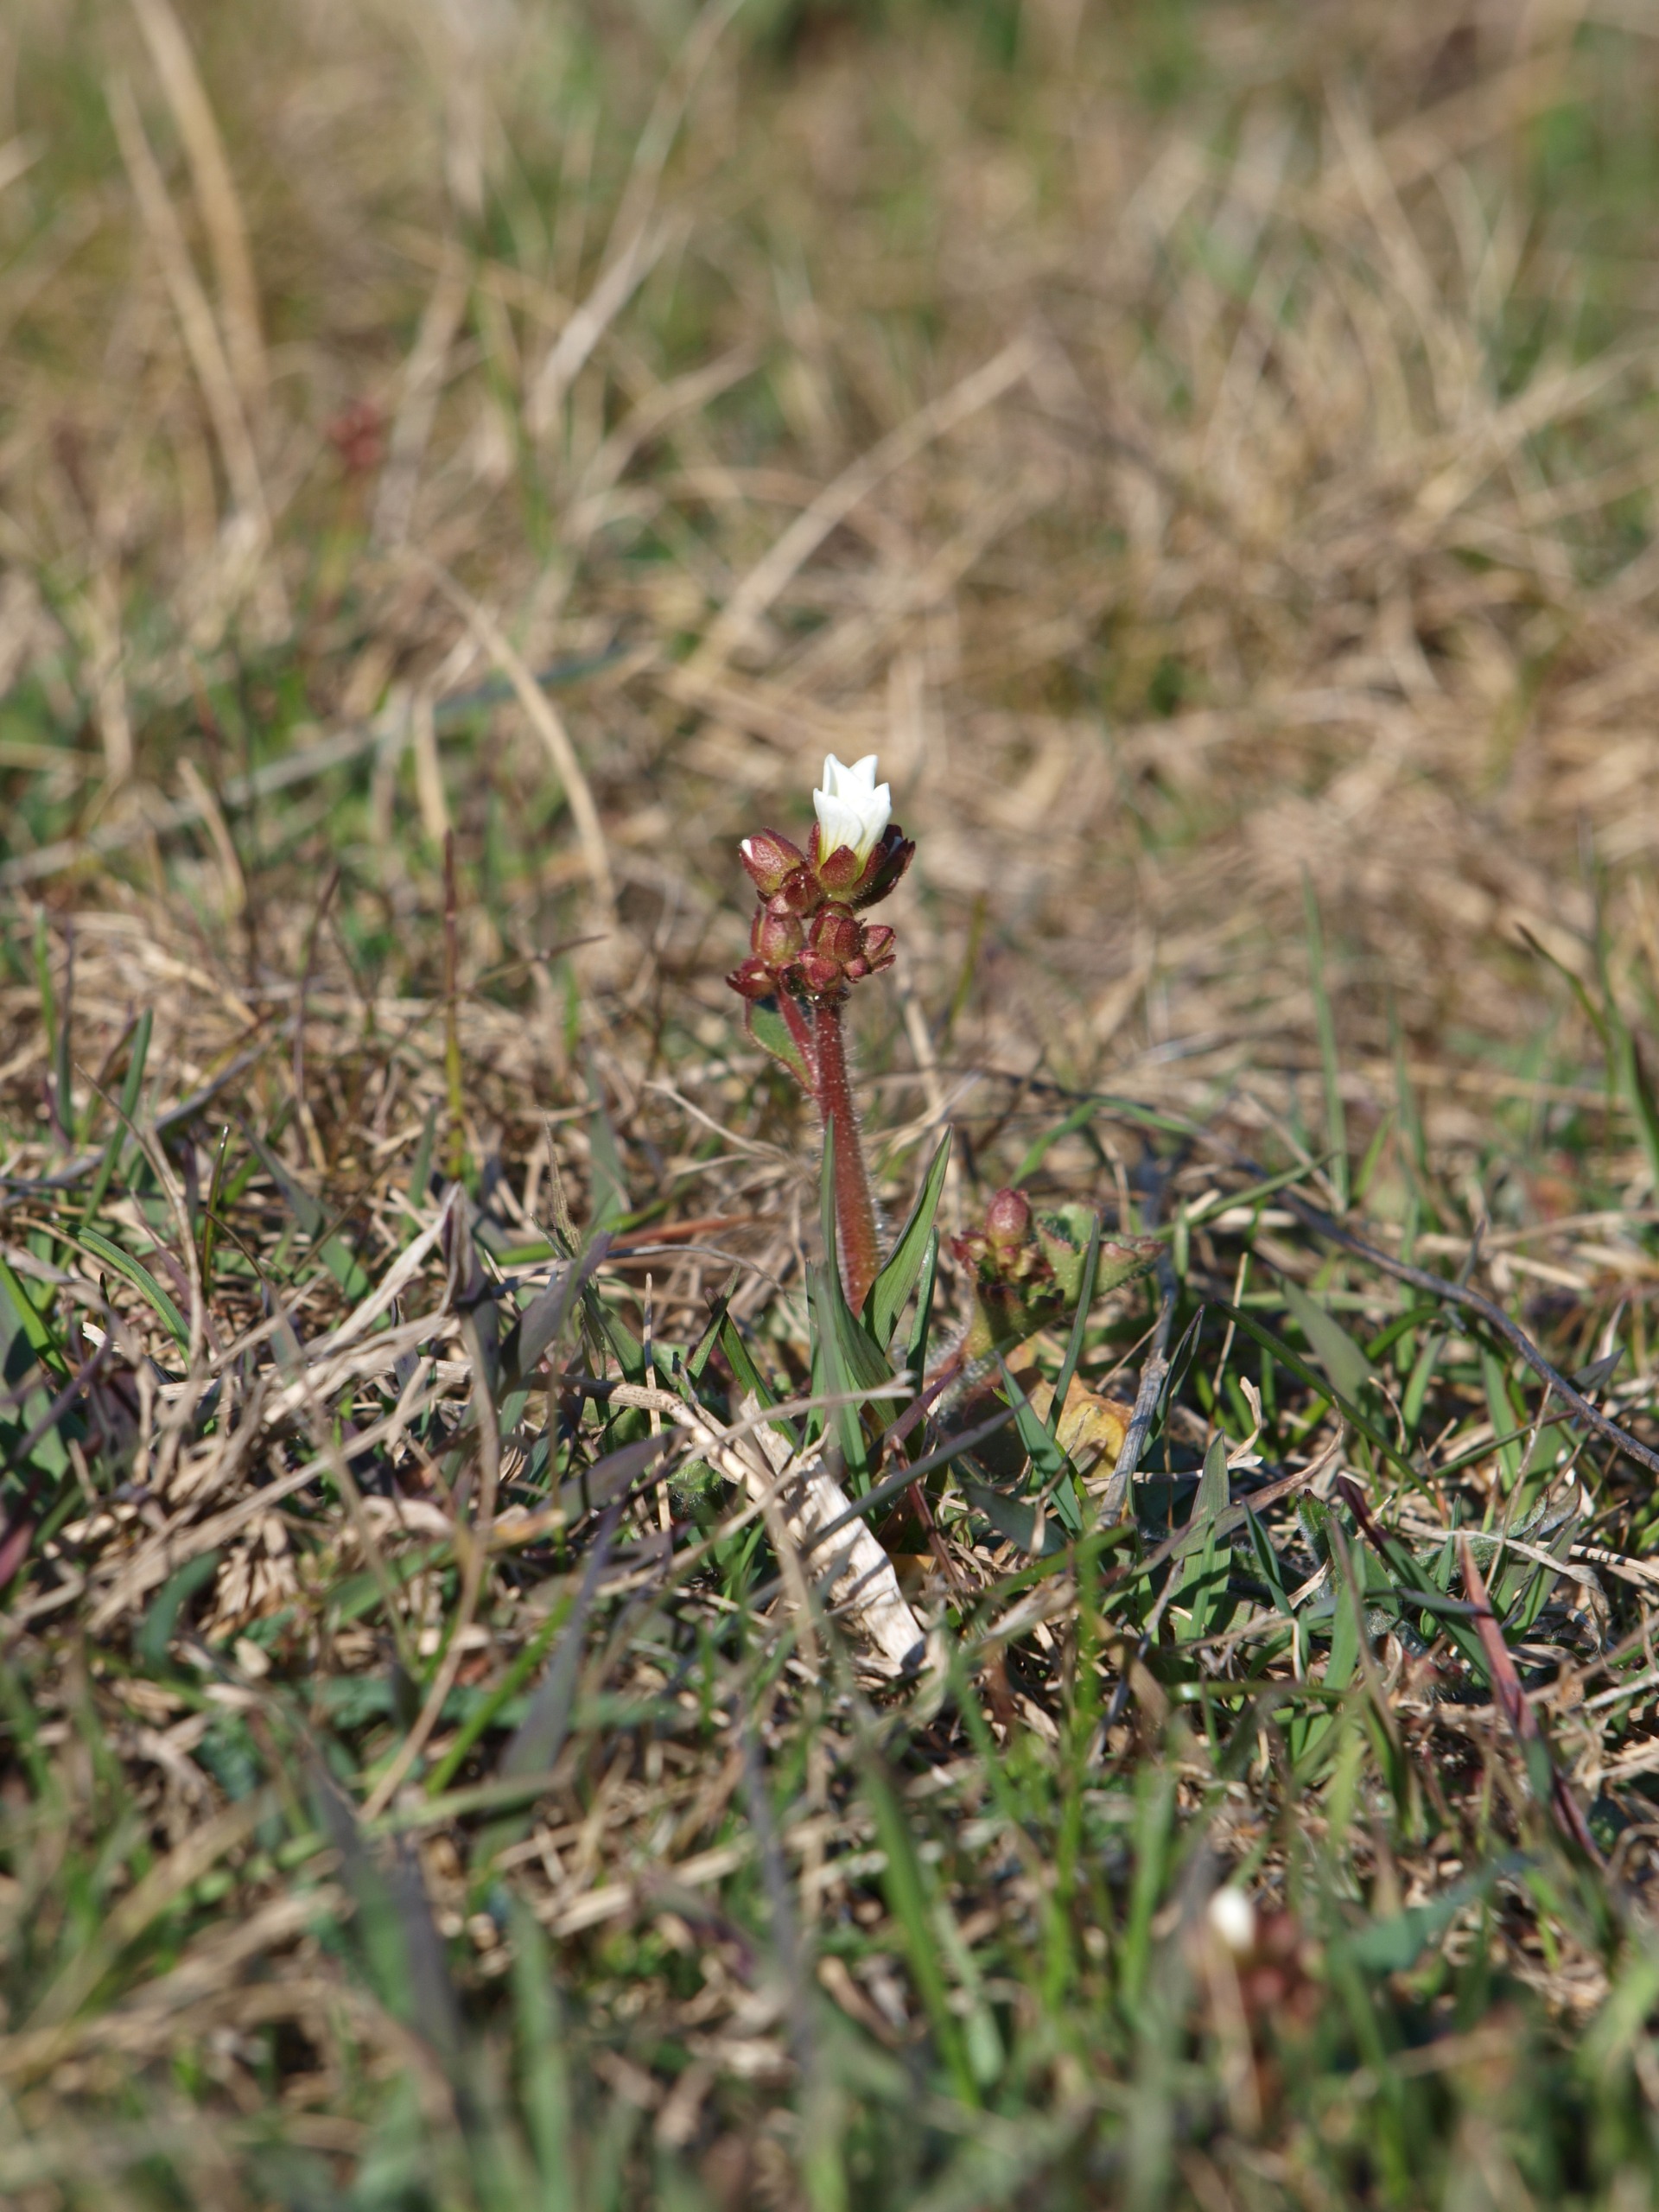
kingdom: Plantae
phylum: Tracheophyta
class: Magnoliopsida
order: Saxifragales
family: Saxifragaceae
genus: Saxifraga
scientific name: Saxifraga granulata
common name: Kornet stenbræk
